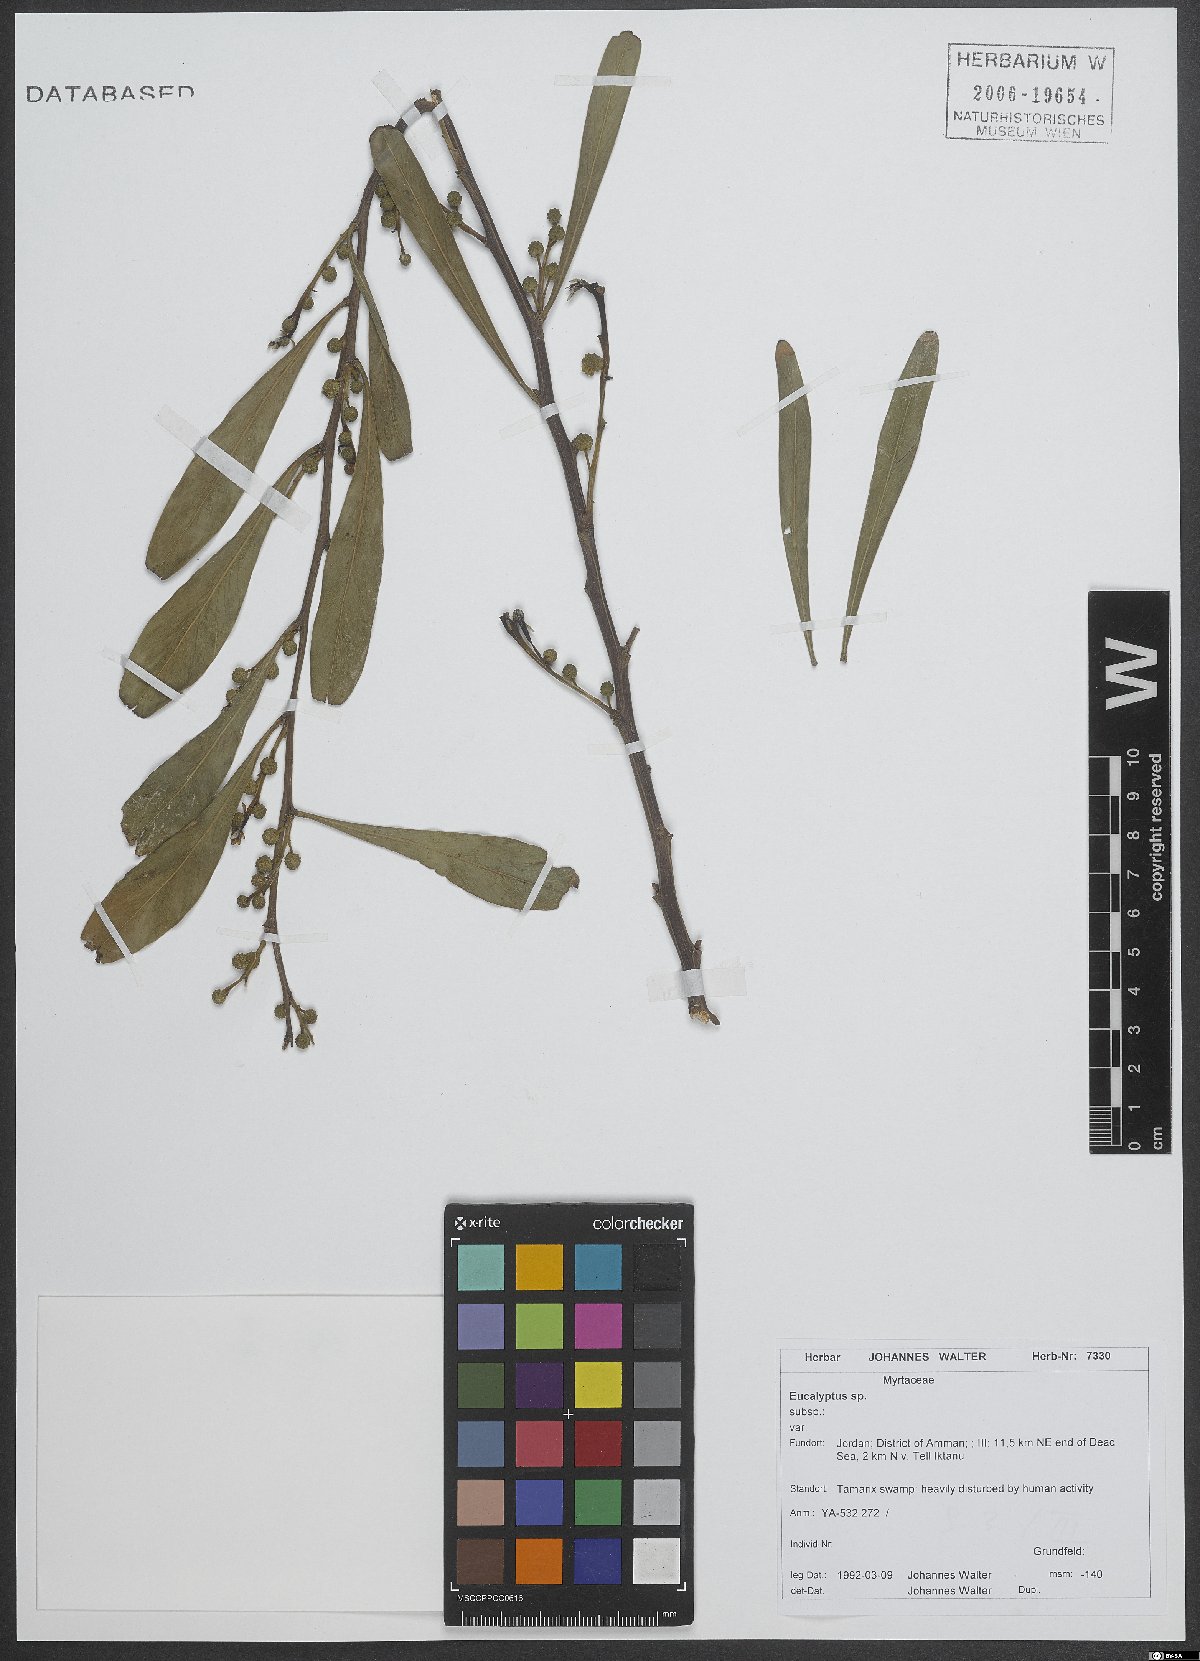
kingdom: Plantae
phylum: Tracheophyta
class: Magnoliopsida
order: Myrtales
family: Myrtaceae
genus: Eucalyptus
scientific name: Eucalyptus
